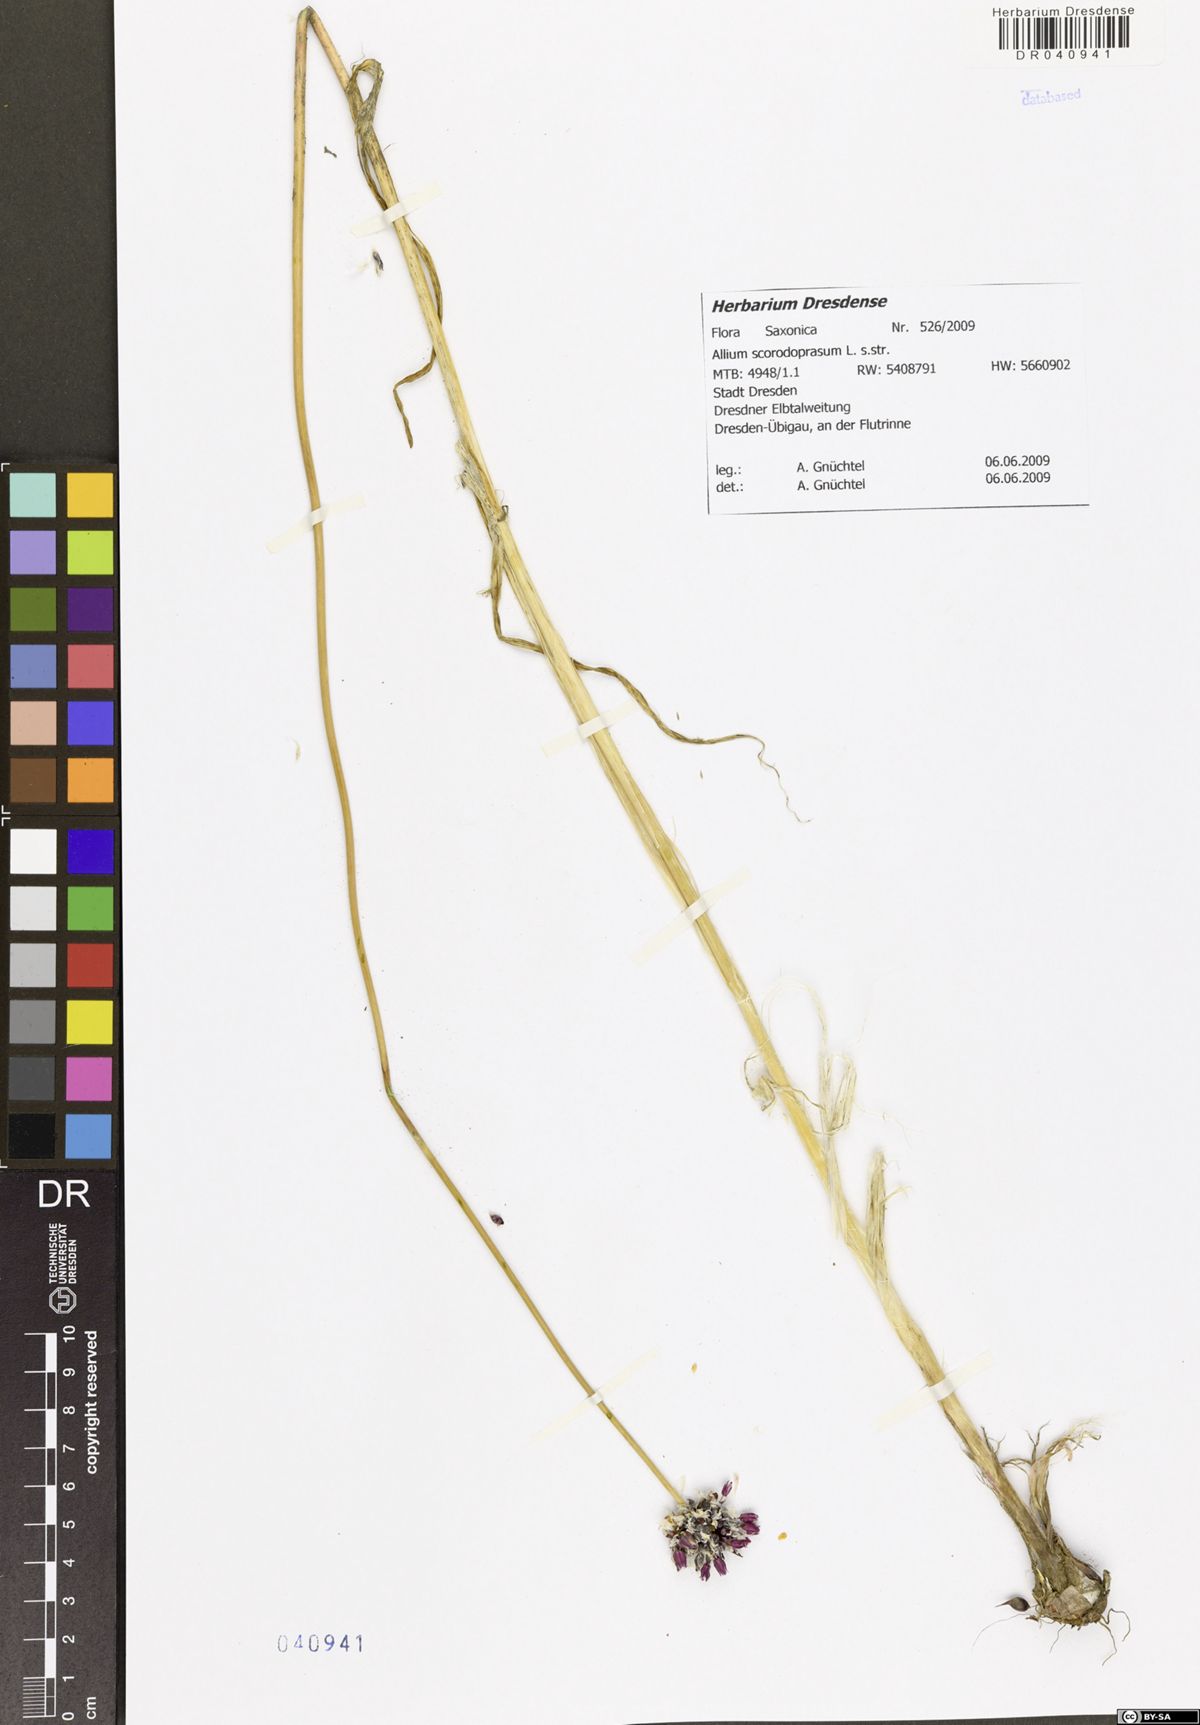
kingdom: Plantae
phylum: Tracheophyta
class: Liliopsida
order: Asparagales
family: Amaryllidaceae
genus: Allium
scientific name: Allium scorodoprasum
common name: Sand leek
